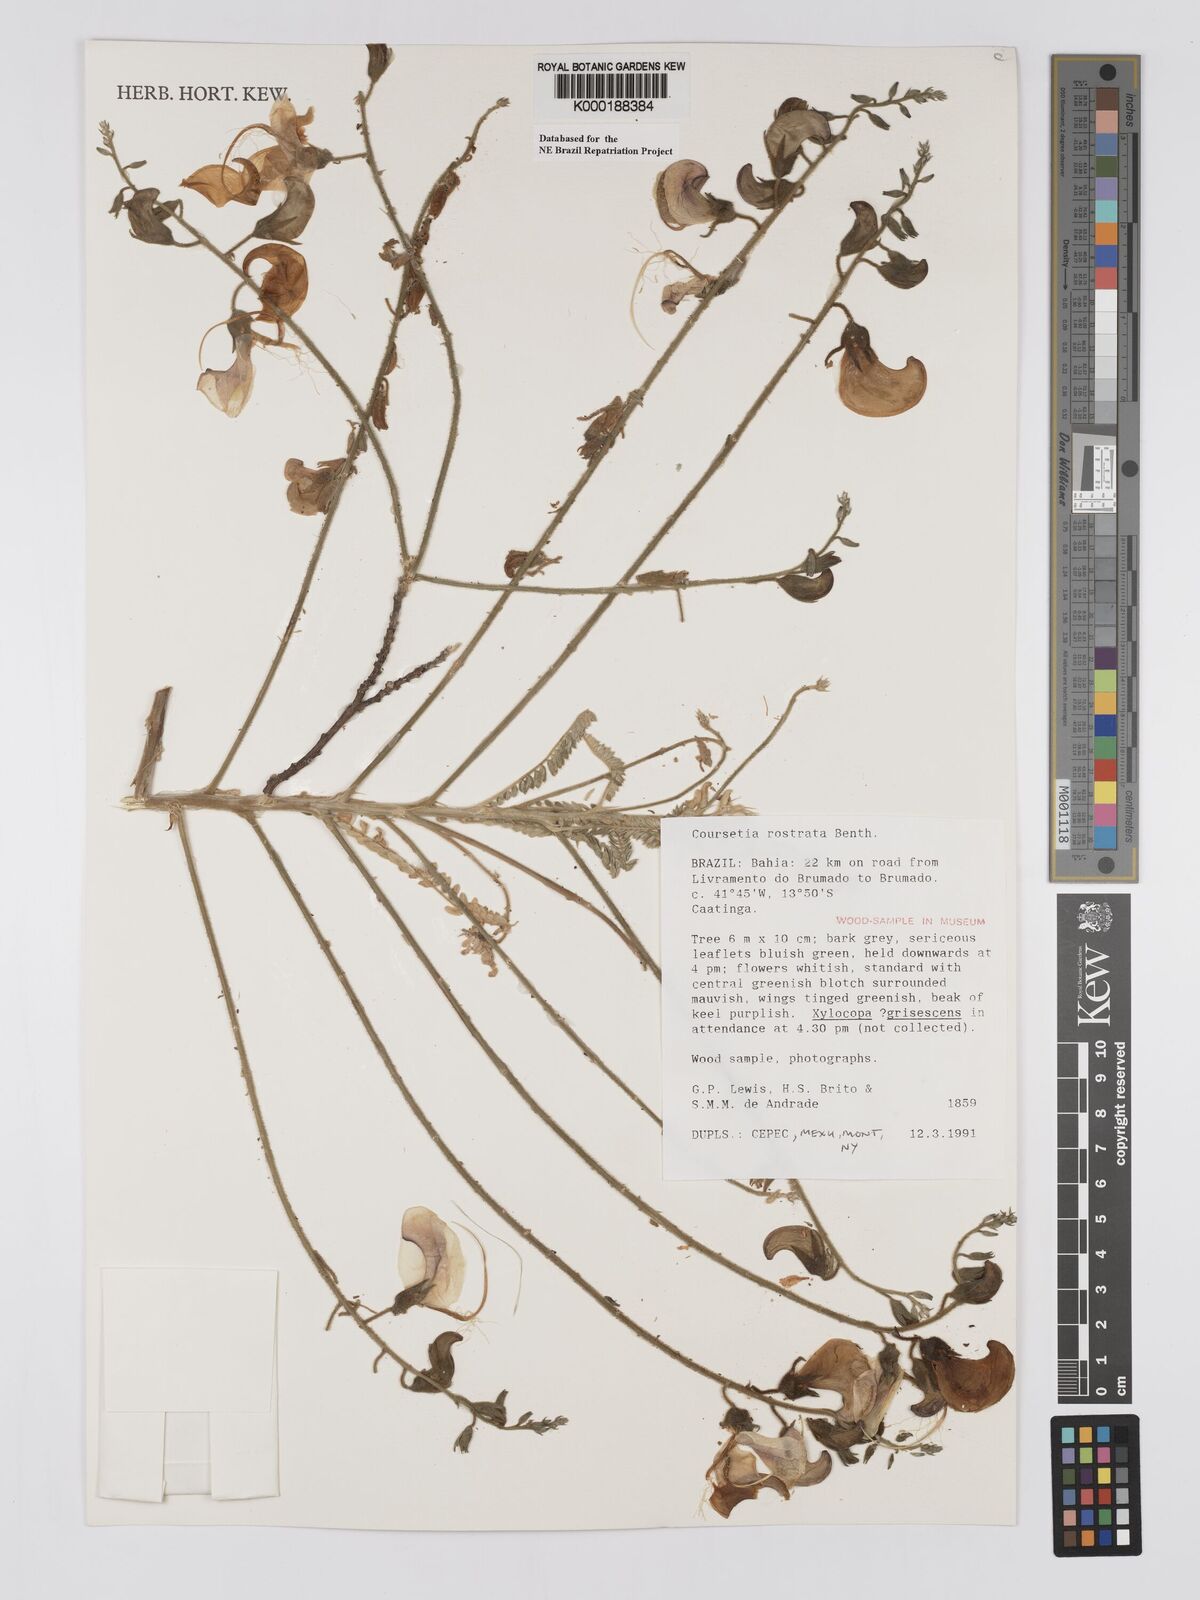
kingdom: Plantae
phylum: Tracheophyta
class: Magnoliopsida
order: Fabales
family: Fabaceae
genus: Coursetia
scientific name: Coursetia rostrata
